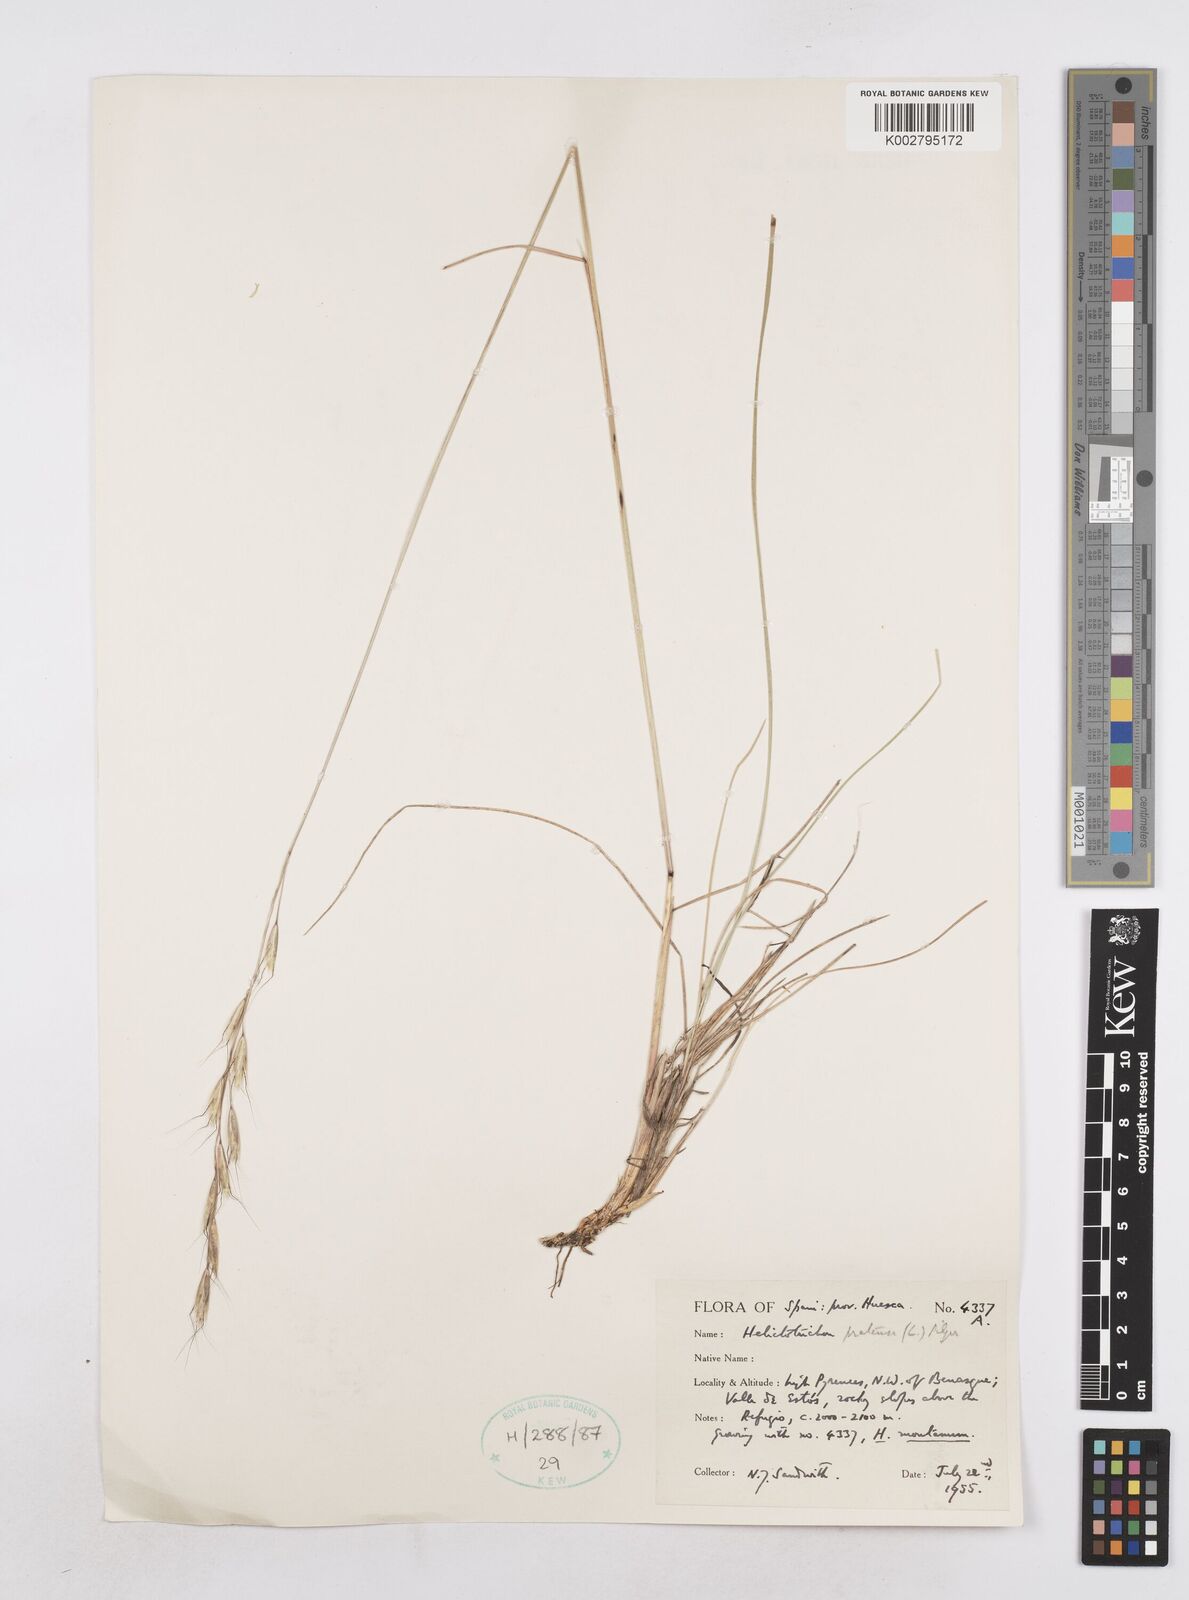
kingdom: Plantae
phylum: Tracheophyta
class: Liliopsida
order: Poales
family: Poaceae
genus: Helictochloa
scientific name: Helictochloa pratensis
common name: Meadow oat grass
